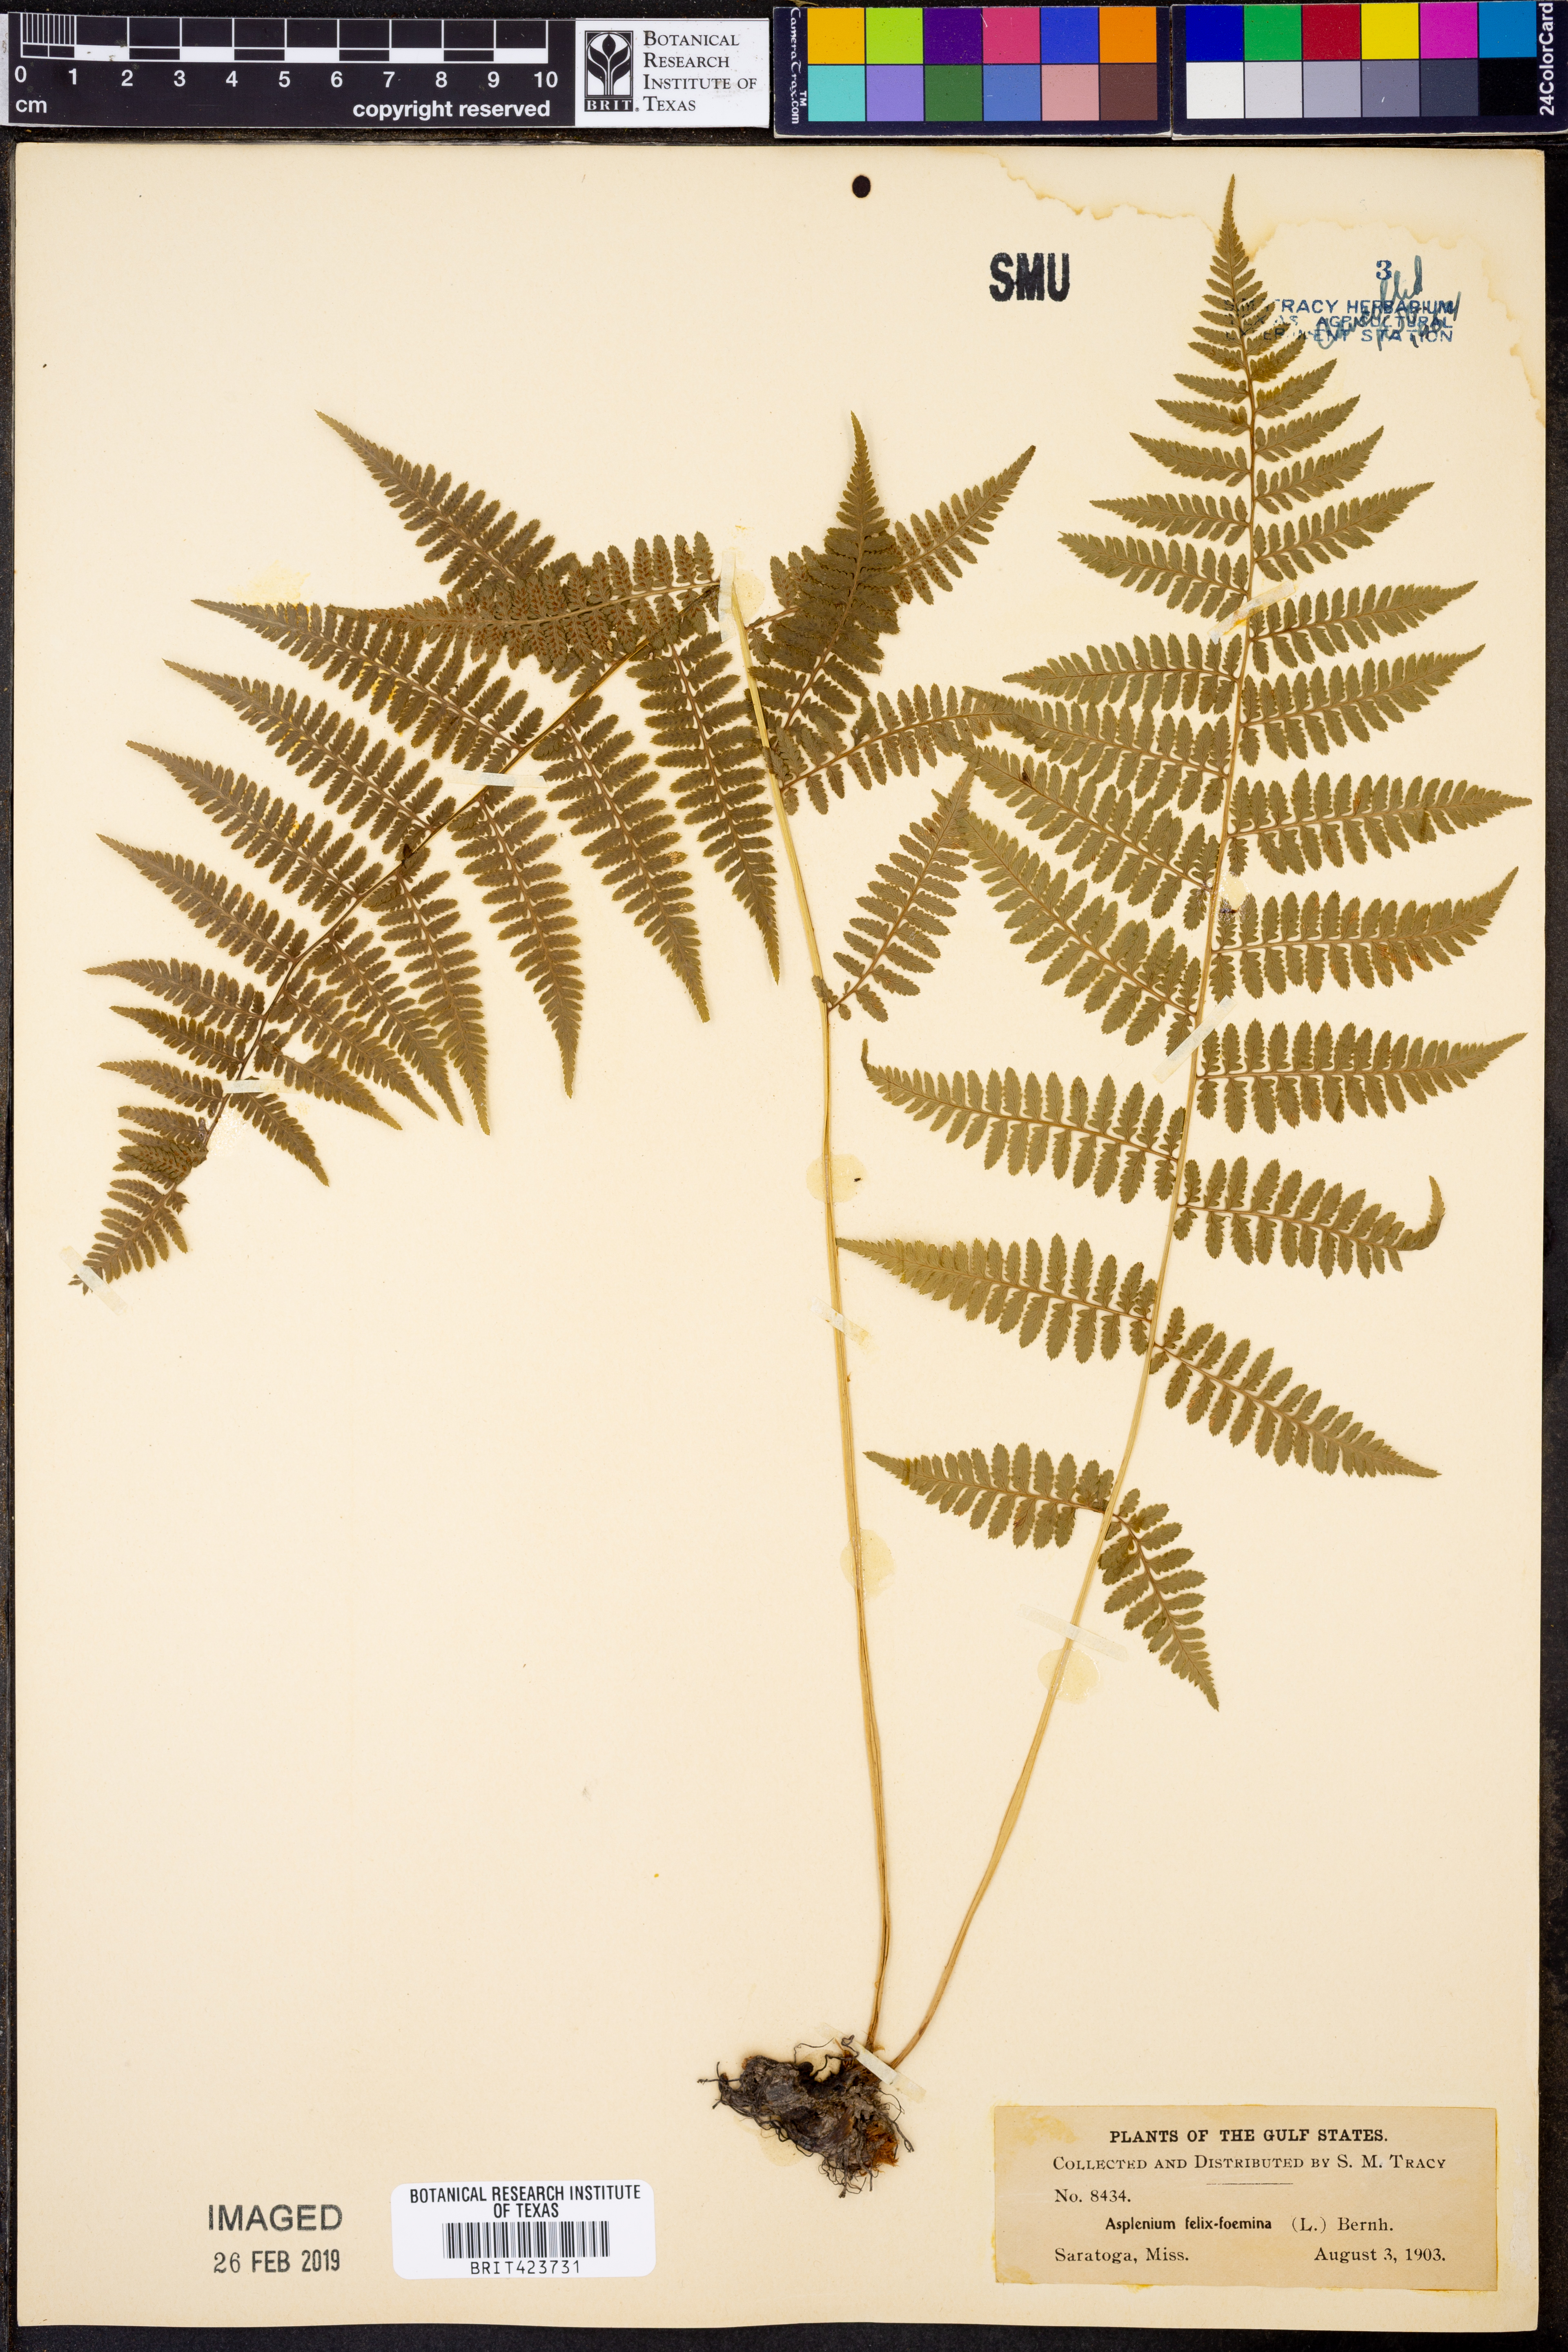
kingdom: Plantae
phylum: Tracheophyta
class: Polypodiopsida
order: Polypodiales
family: Athyriaceae
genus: Athyrium
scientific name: Athyrium filix-femina
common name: Lady fern
